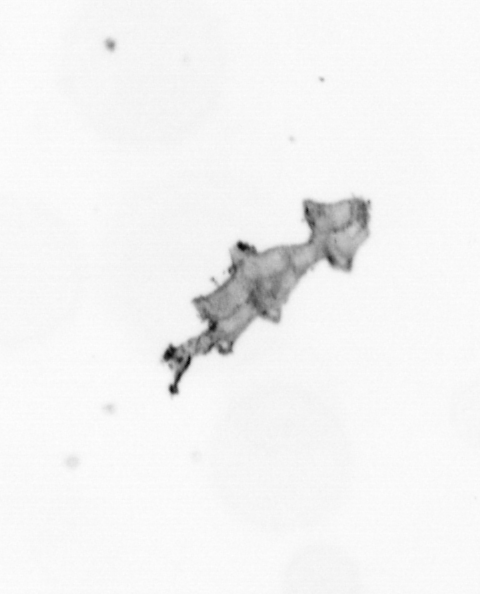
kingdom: Animalia
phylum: Cnidaria
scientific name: Cnidaria
